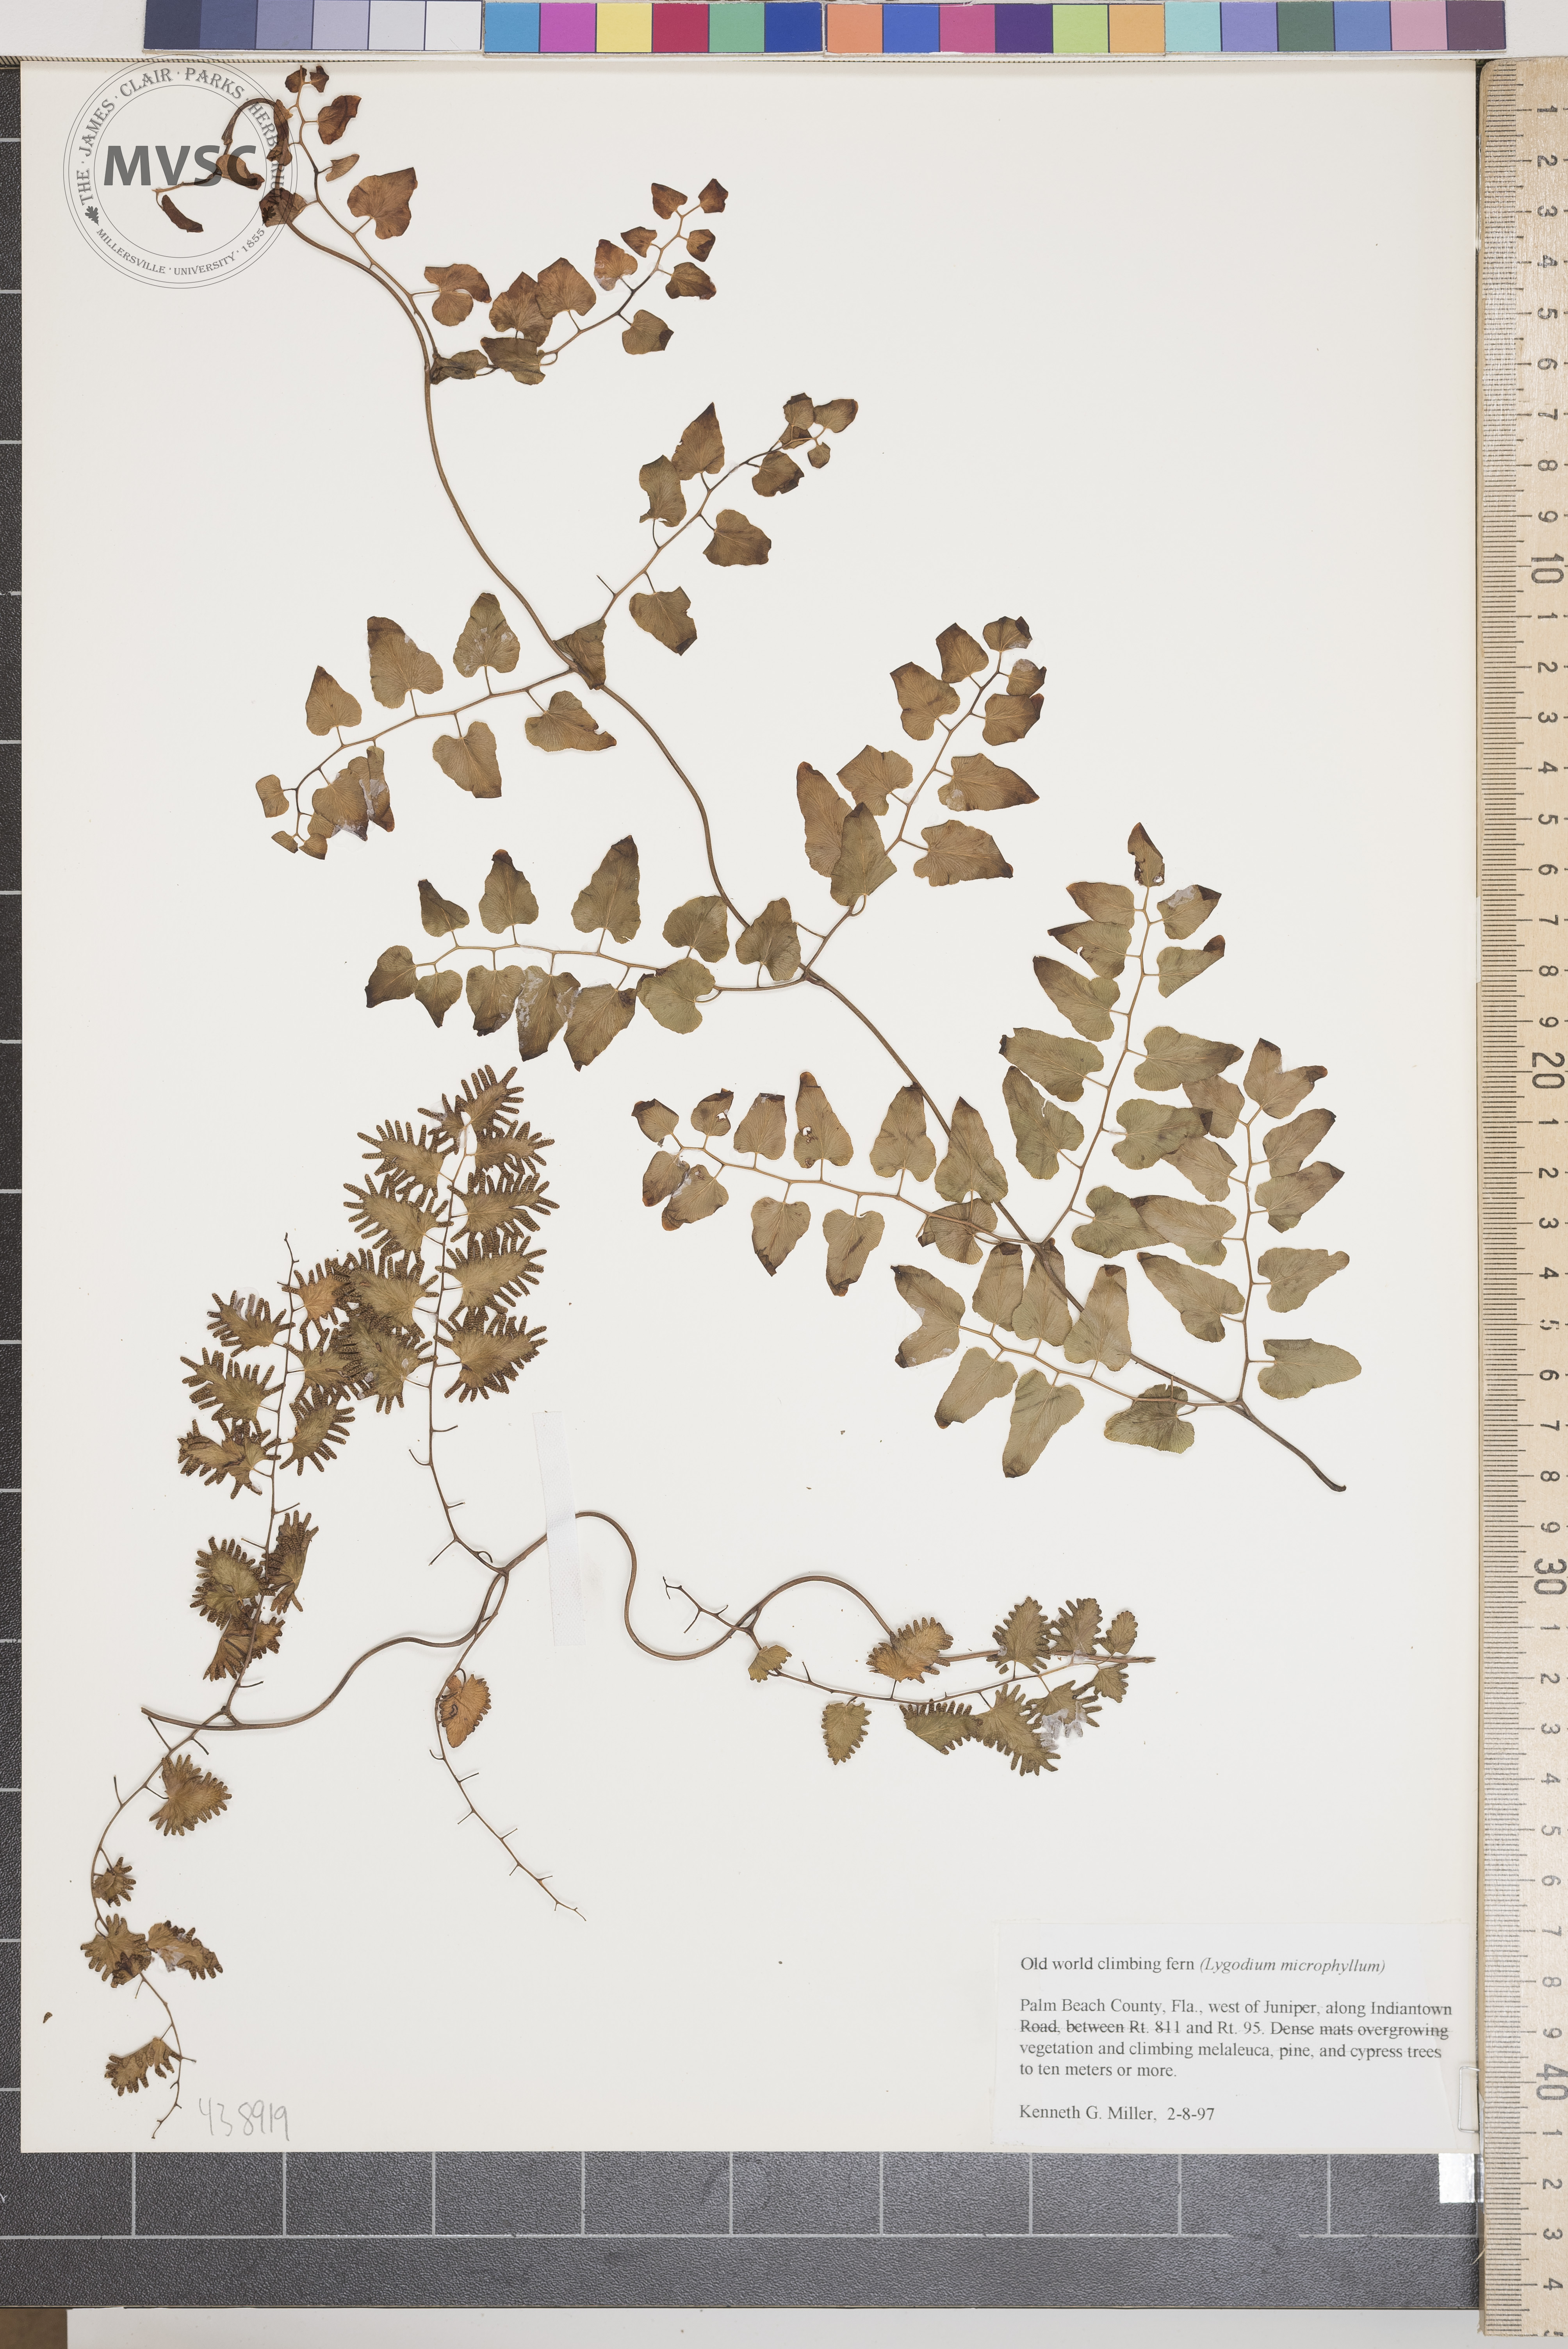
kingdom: Plantae
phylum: Tracheophyta
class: Polypodiopsida
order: Schizaeales
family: Lygodiaceae
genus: Lygodium
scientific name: Lygodium microphyllum
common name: Old world climbing fern
